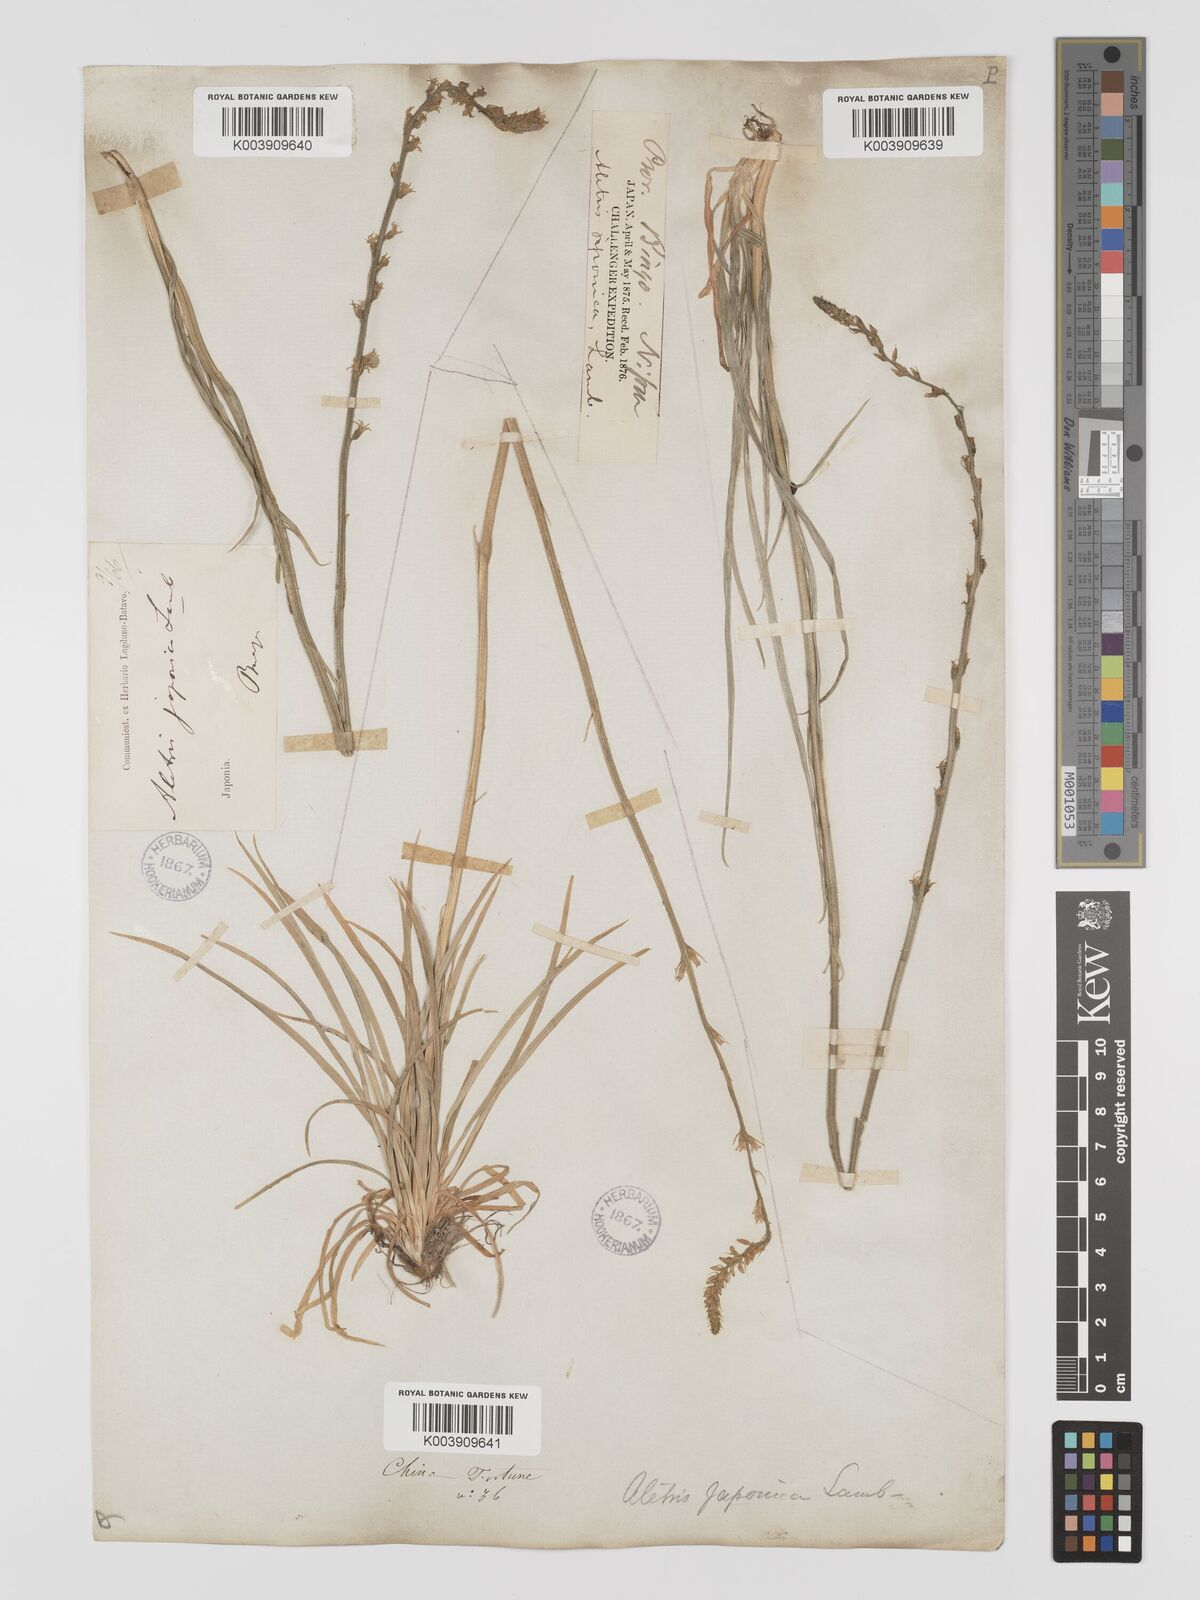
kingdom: Plantae
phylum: Tracheophyta
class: Liliopsida
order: Dioscoreales
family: Nartheciaceae
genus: Aletris
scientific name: Aletris spicata
